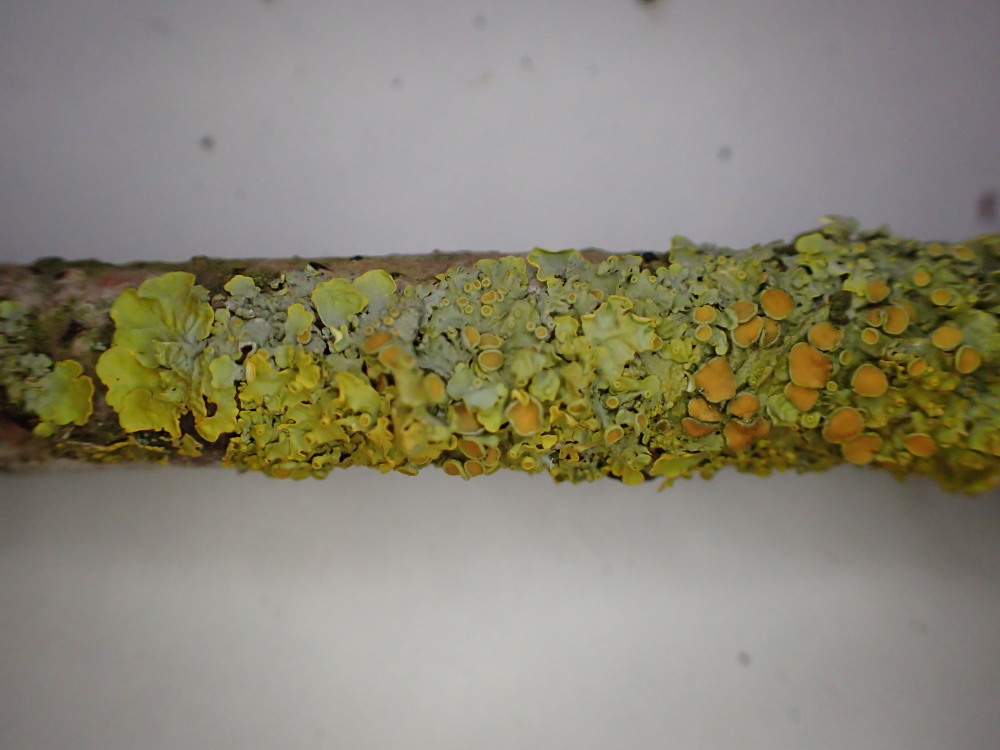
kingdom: Fungi
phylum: Ascomycota
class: Lecanoromycetes
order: Teloschistales
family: Teloschistaceae
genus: Xanthoria
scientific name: Xanthoria parietina
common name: almindelig væggelav
